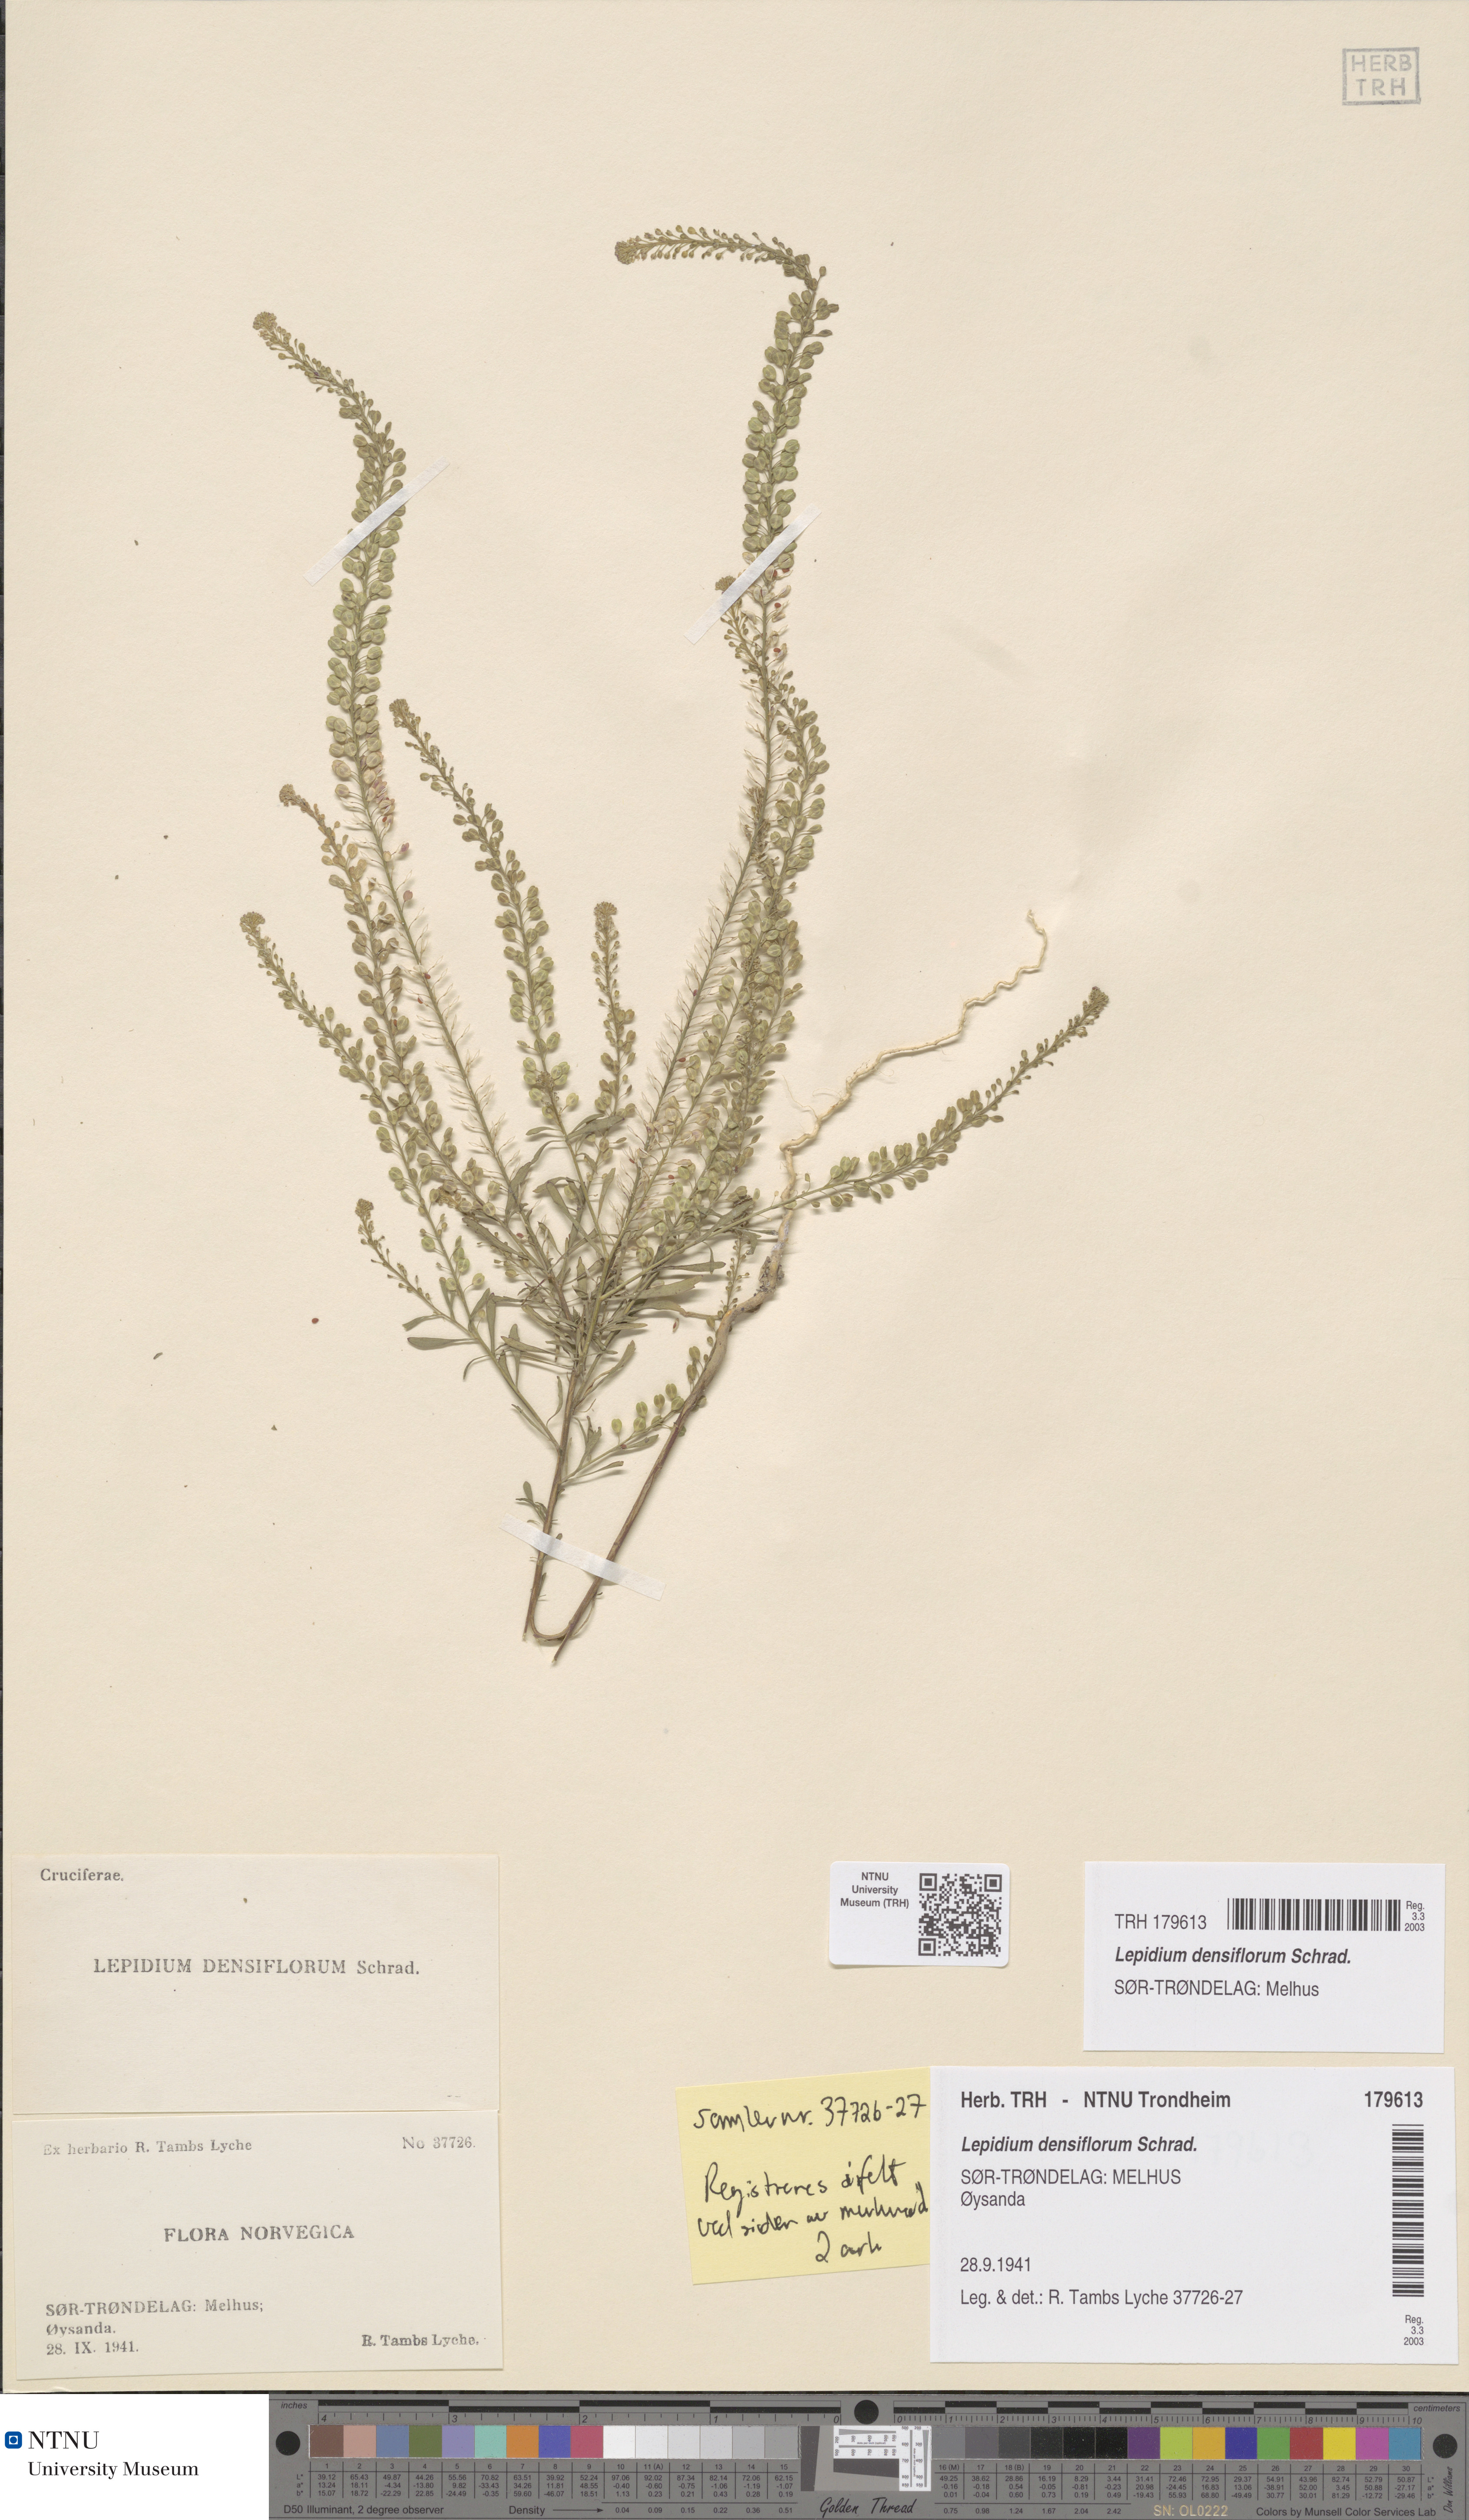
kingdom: Plantae
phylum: Tracheophyta
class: Magnoliopsida
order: Brassicales
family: Brassicaceae
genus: Lepidium
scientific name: Lepidium densiflorum
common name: Miner's pepperwort
